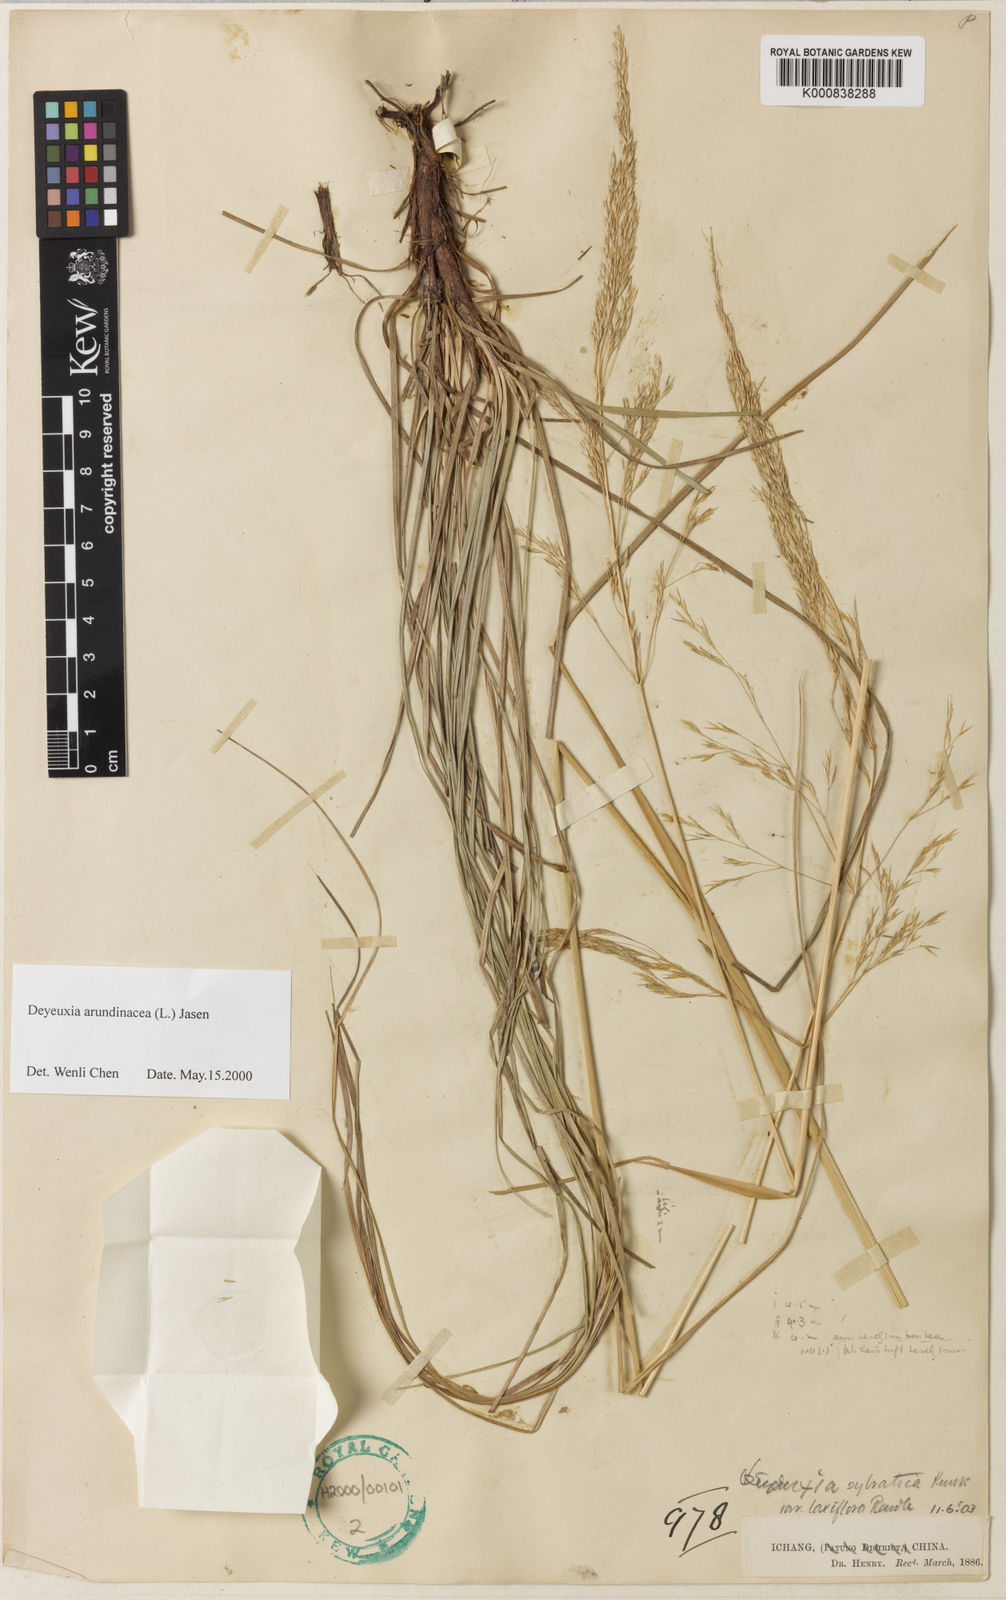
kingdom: Plantae
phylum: Tracheophyta
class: Liliopsida
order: Poales
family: Poaceae
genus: Calamagrostis
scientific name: Calamagrostis effusiflora
